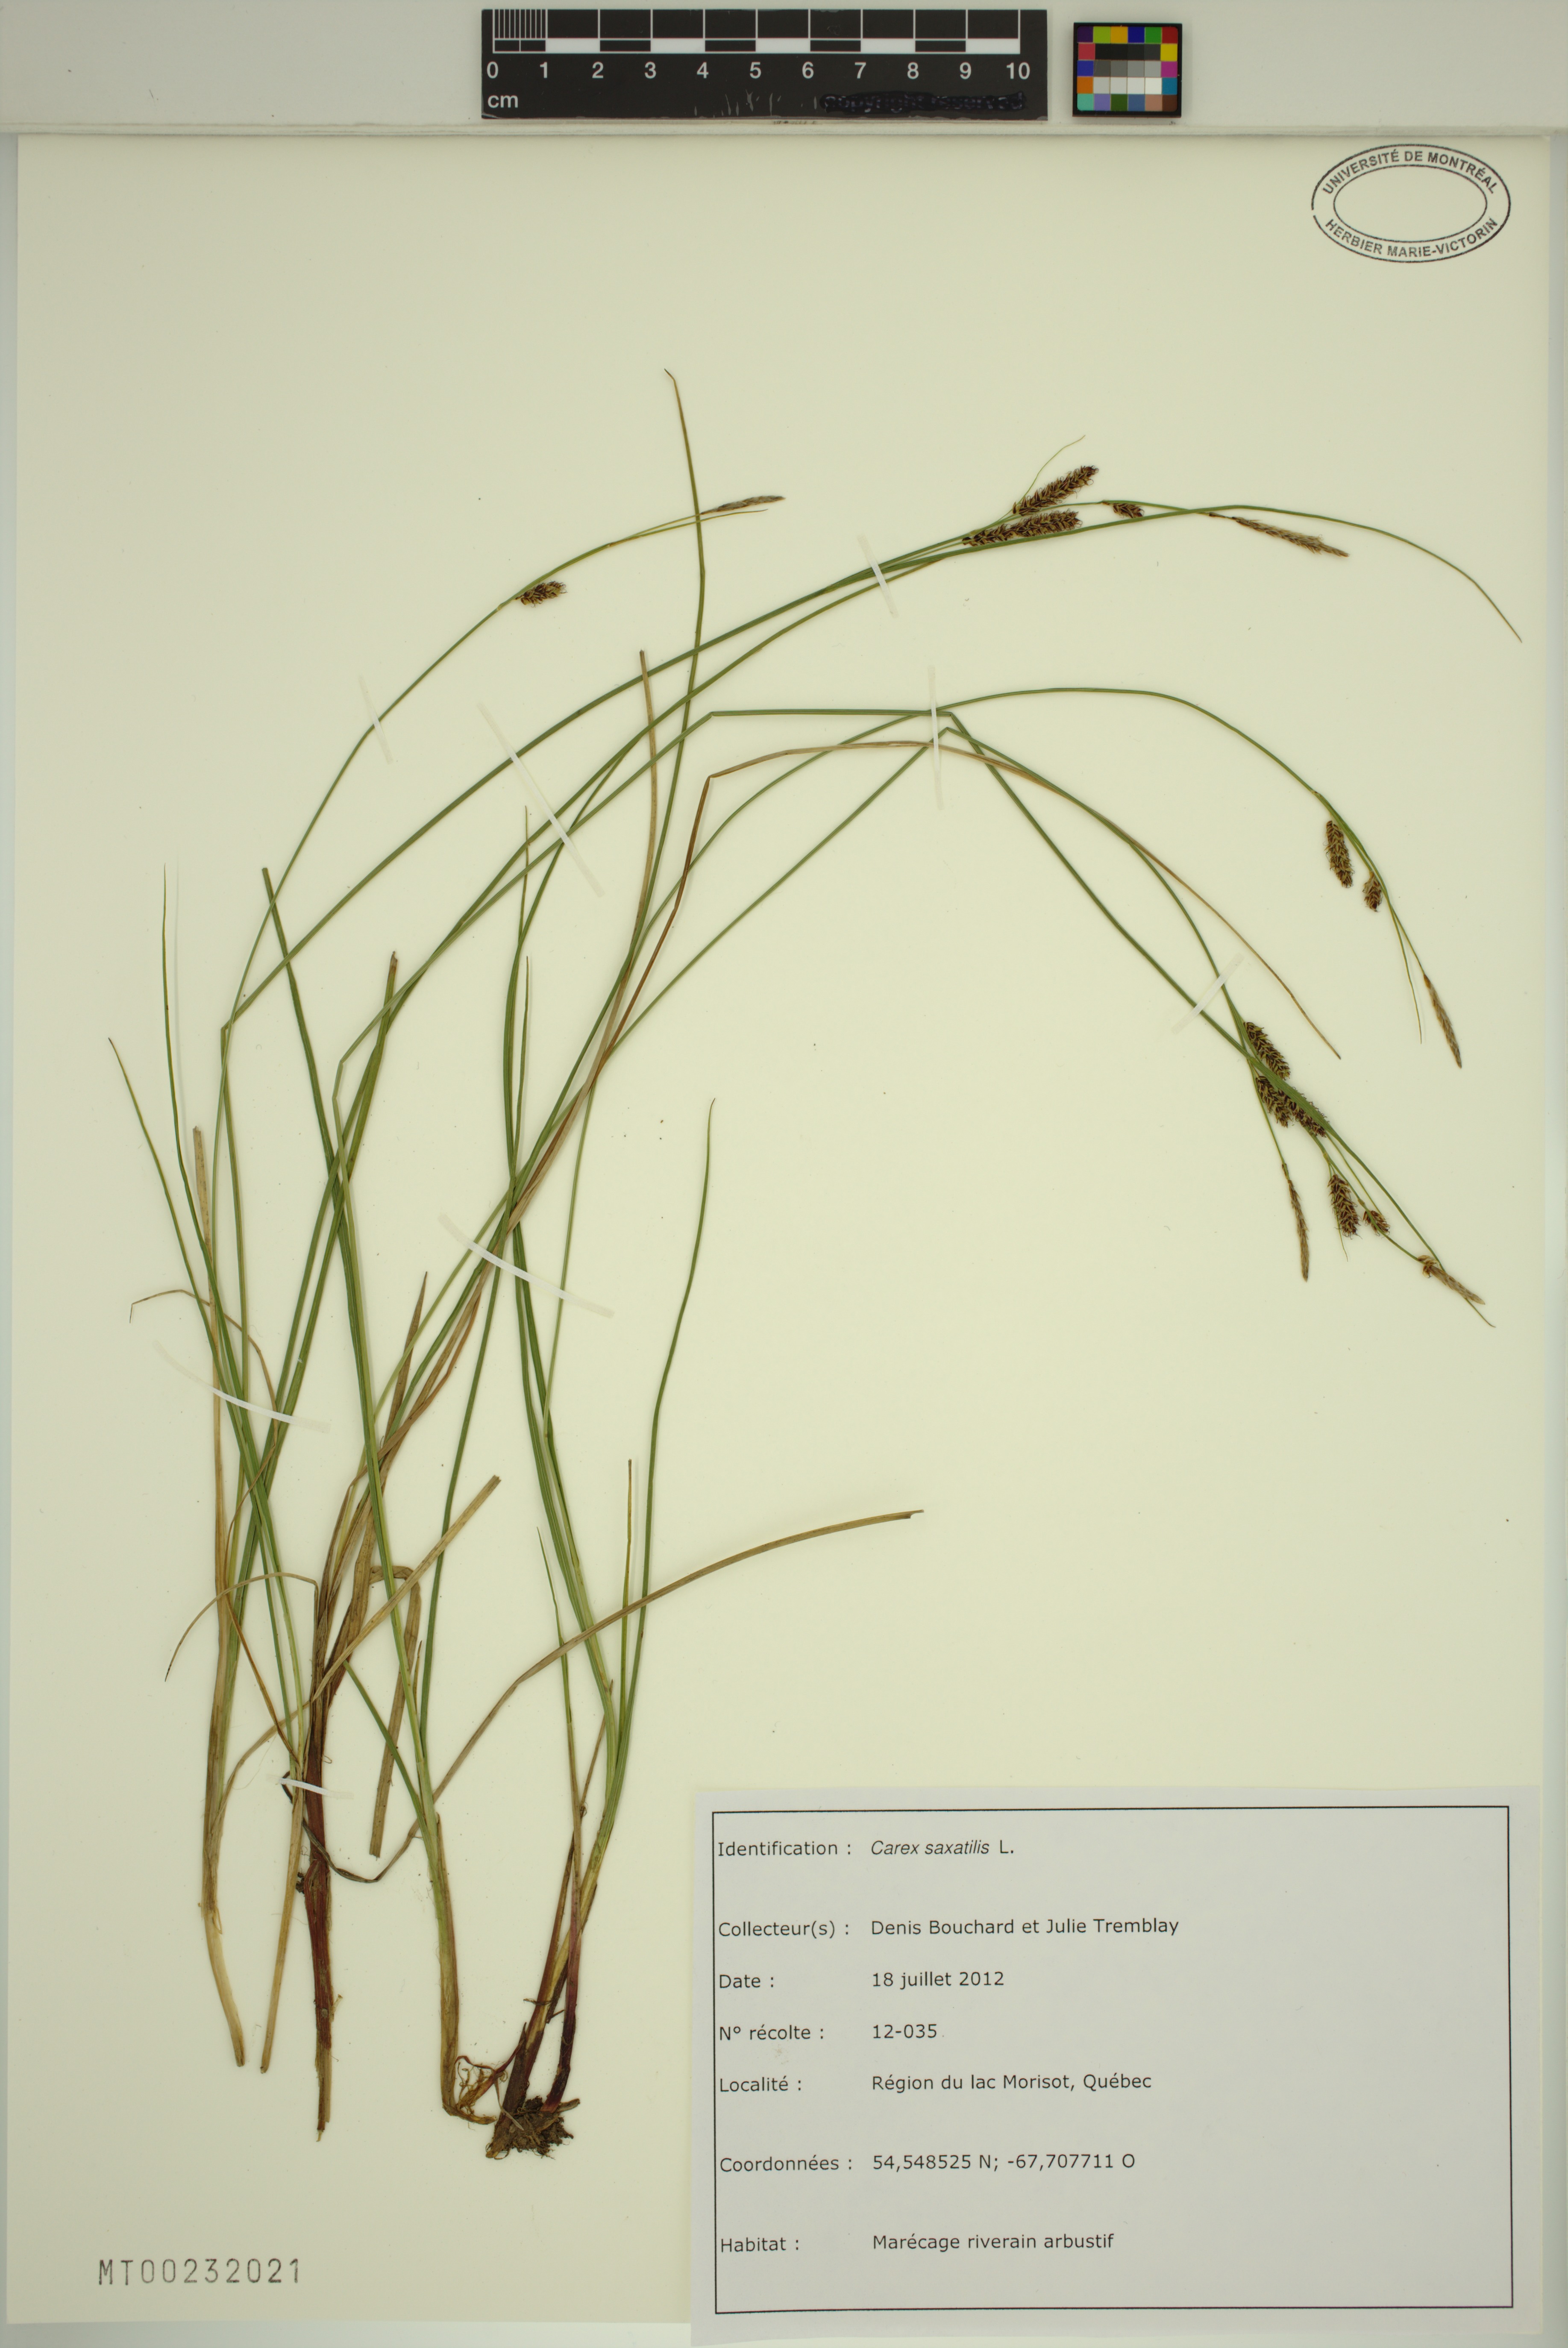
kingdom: Plantae
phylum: Tracheophyta
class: Liliopsida
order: Poales
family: Cyperaceae
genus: Carex
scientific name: Carex saxatilis
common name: Russet sedge
